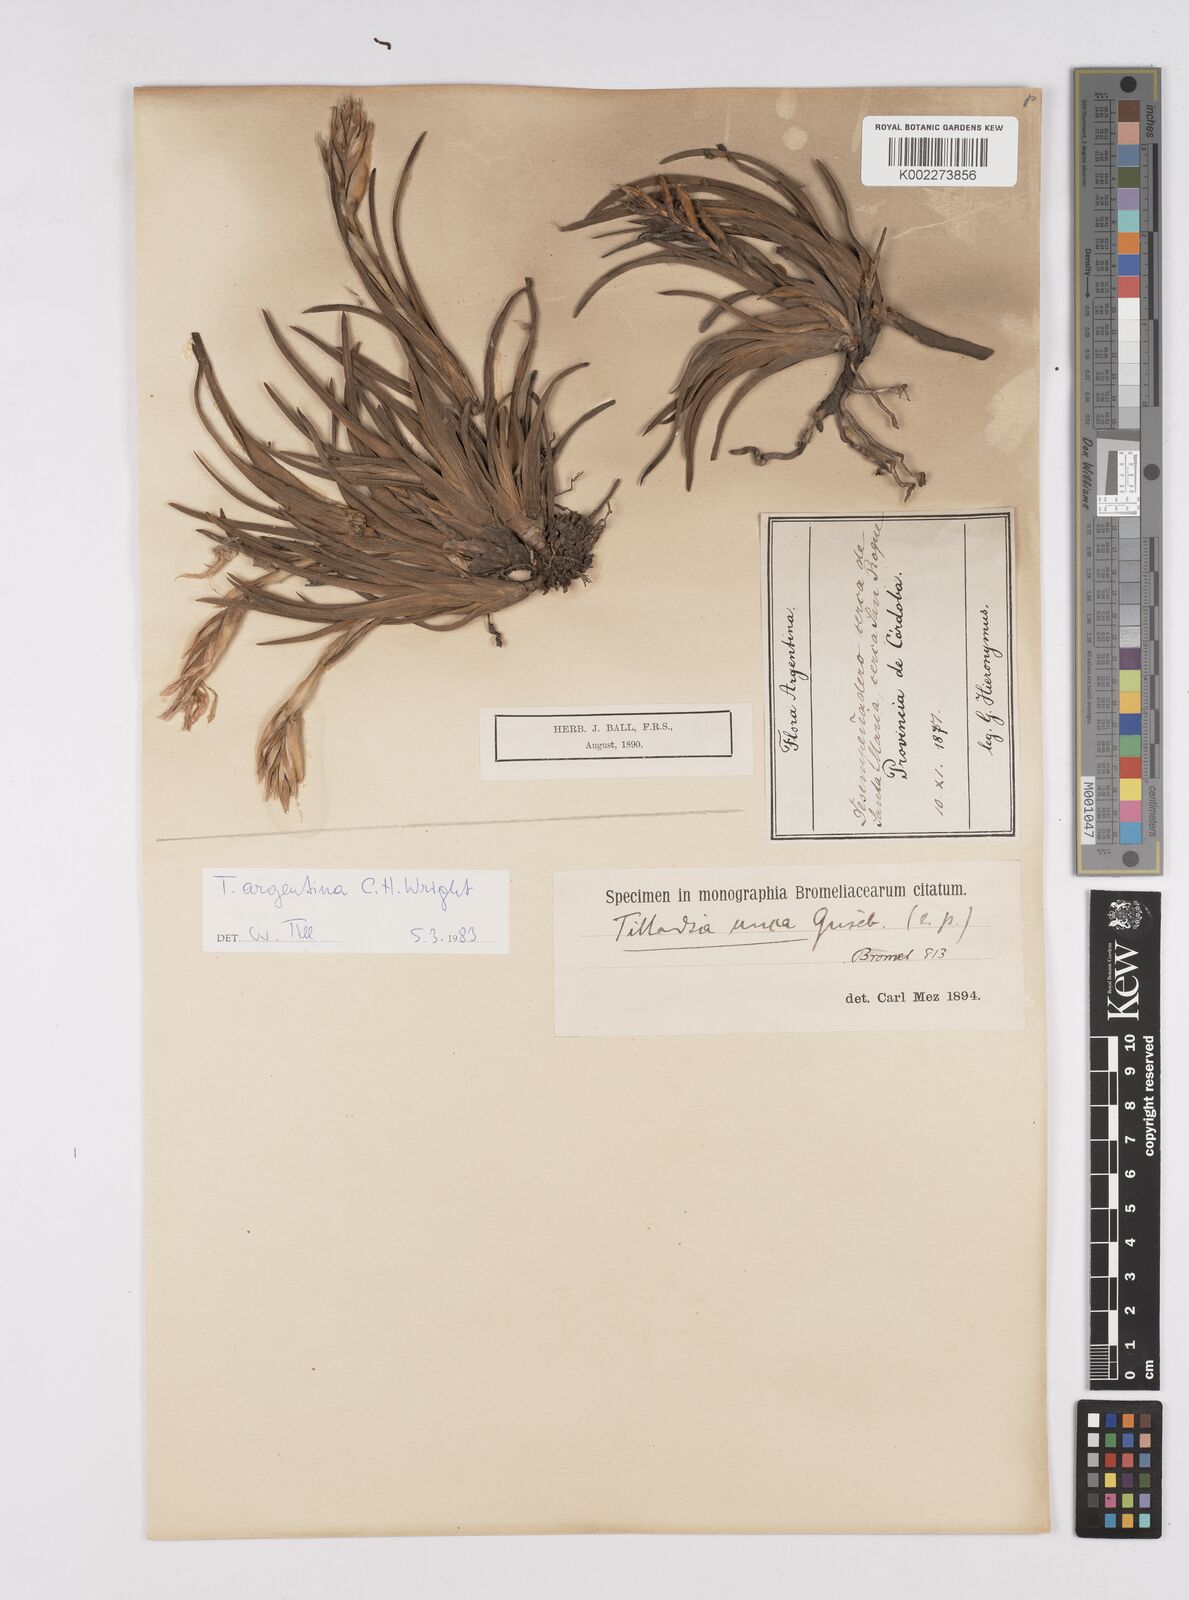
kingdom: Plantae
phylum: Tracheophyta
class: Liliopsida
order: Poales
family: Bromeliaceae
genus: Tillandsia
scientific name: Tillandsia argentina
